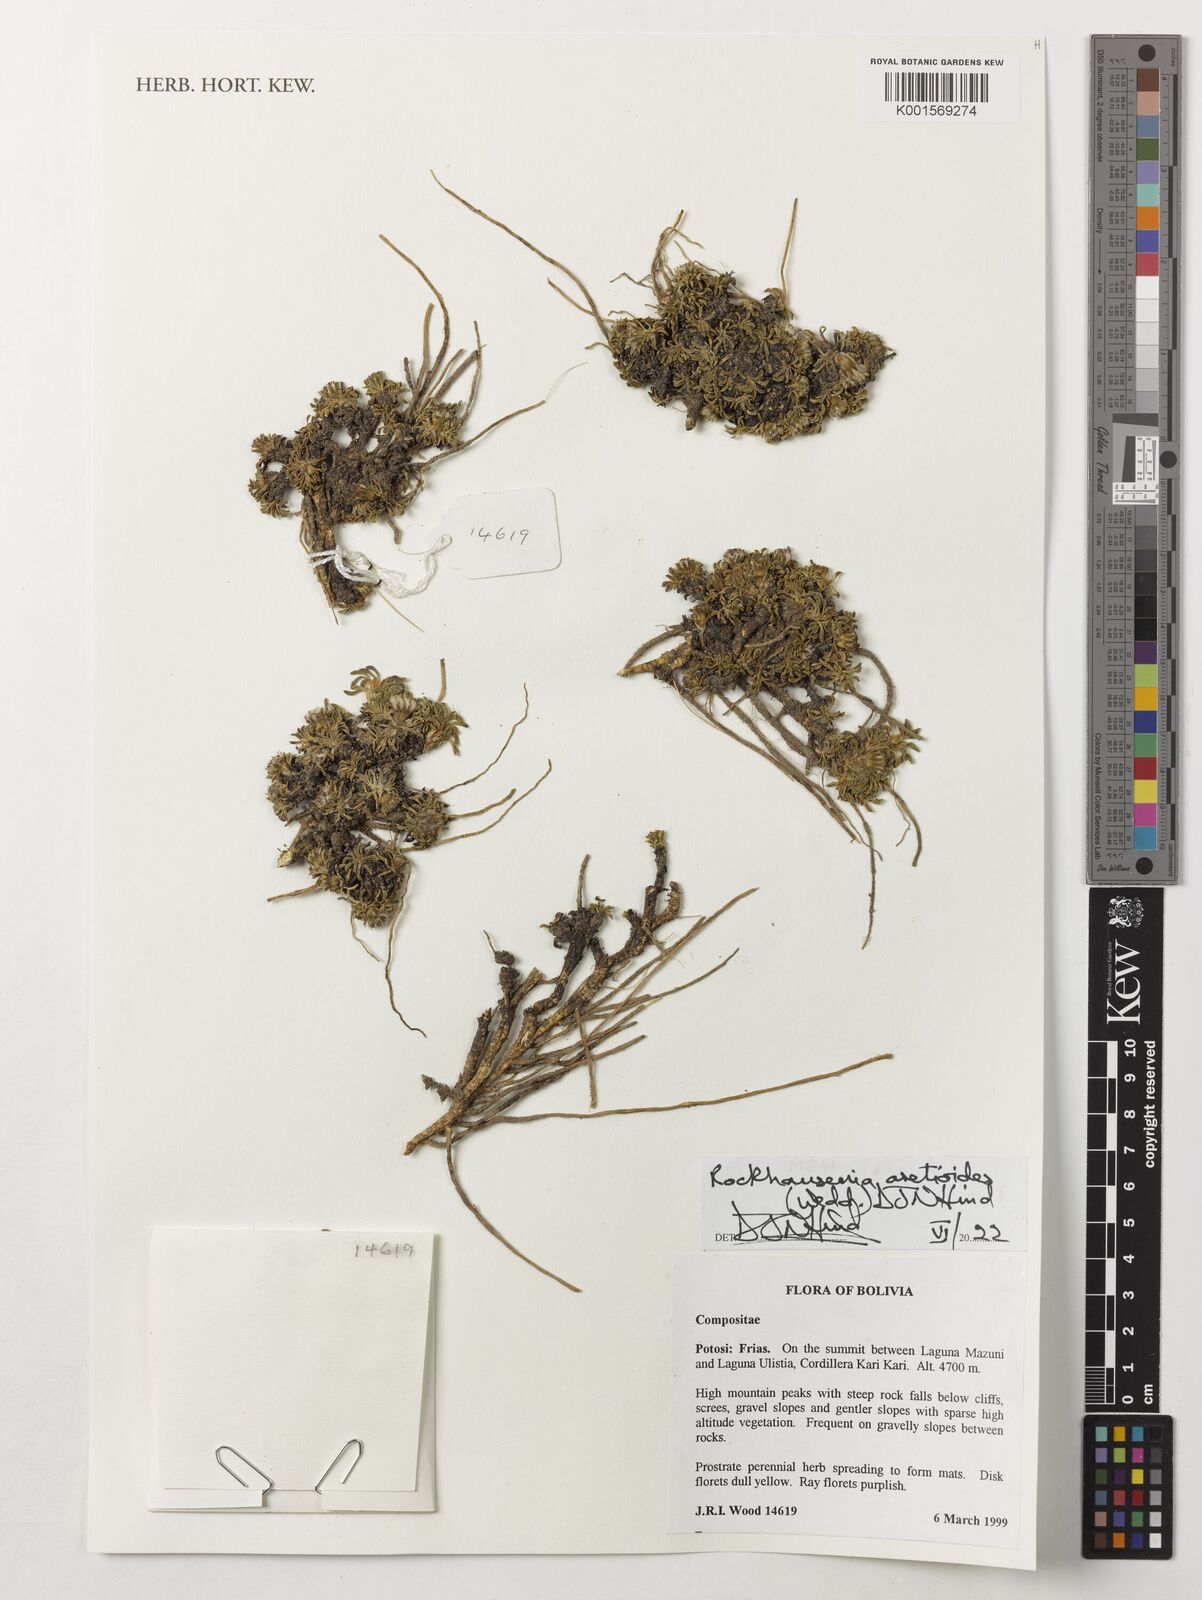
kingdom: Plantae
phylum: Tracheophyta
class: Magnoliopsida
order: Asterales
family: Asteraceae
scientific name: Asteraceae
